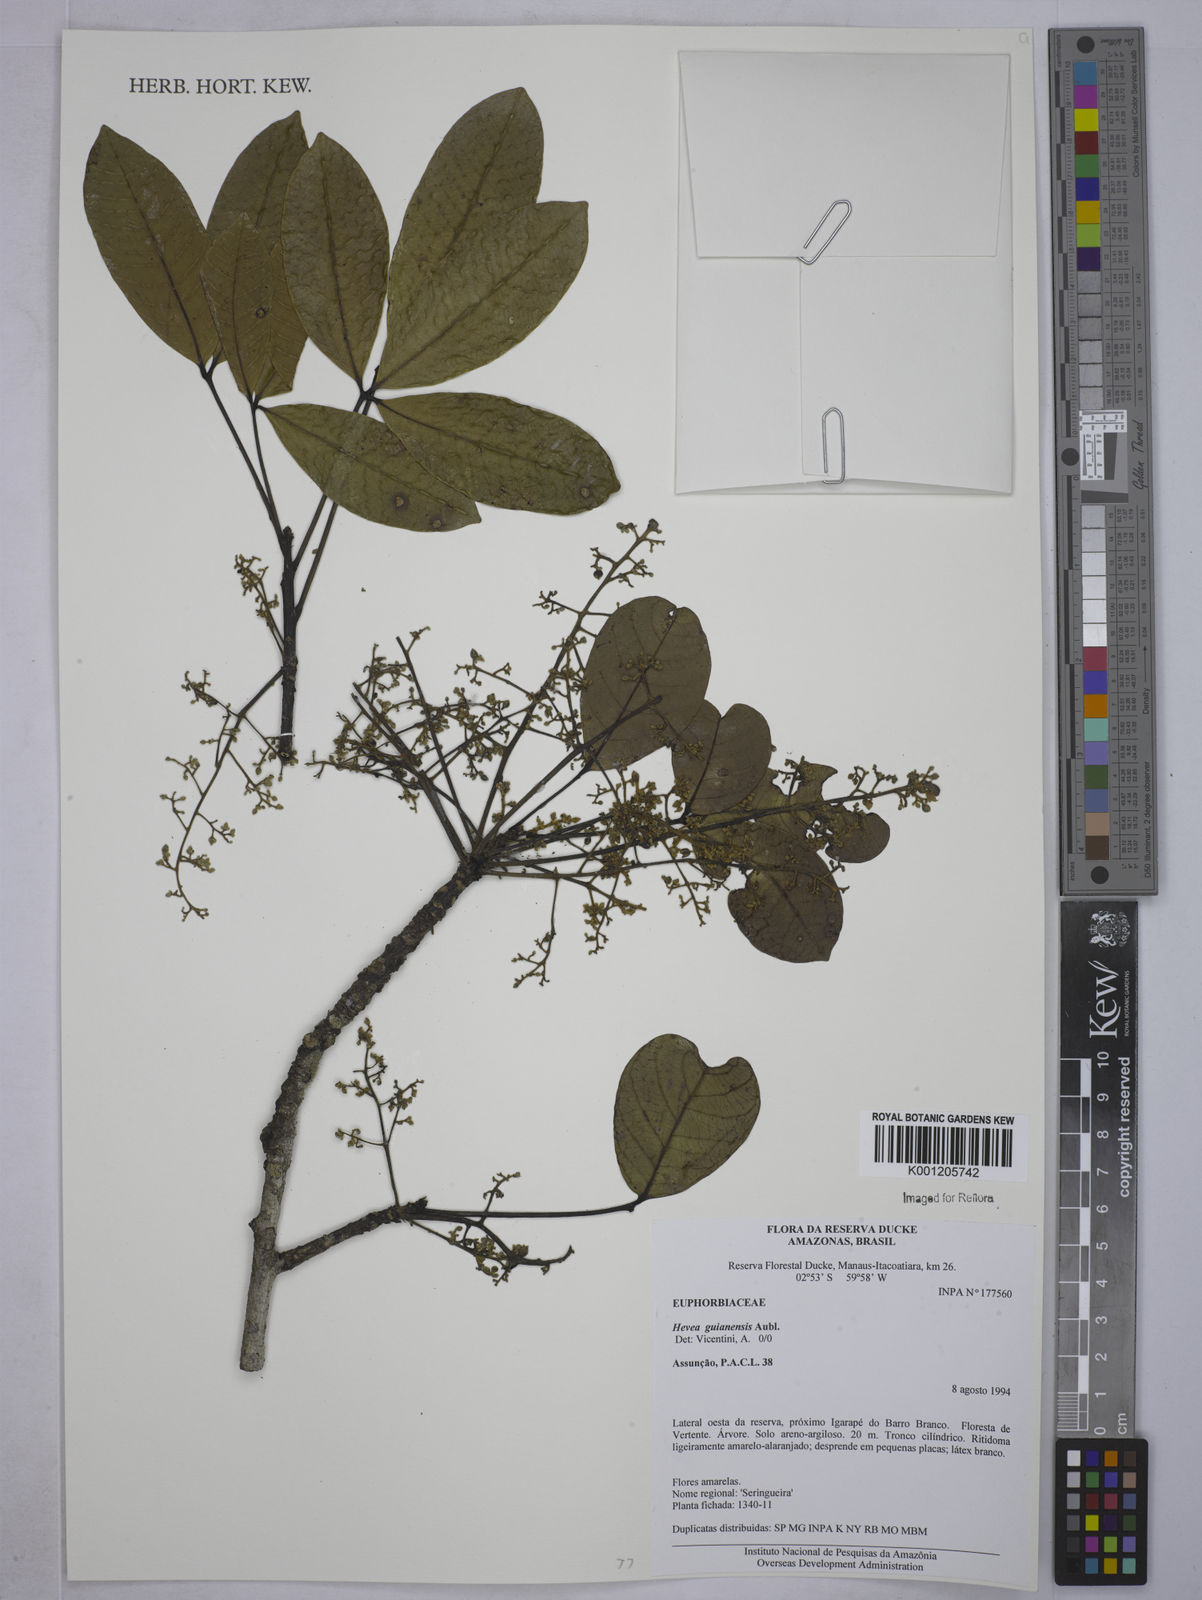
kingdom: Plantae
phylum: Tracheophyta
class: Magnoliopsida
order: Malpighiales
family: Euphorbiaceae
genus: Hevea
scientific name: Hevea guianensis
